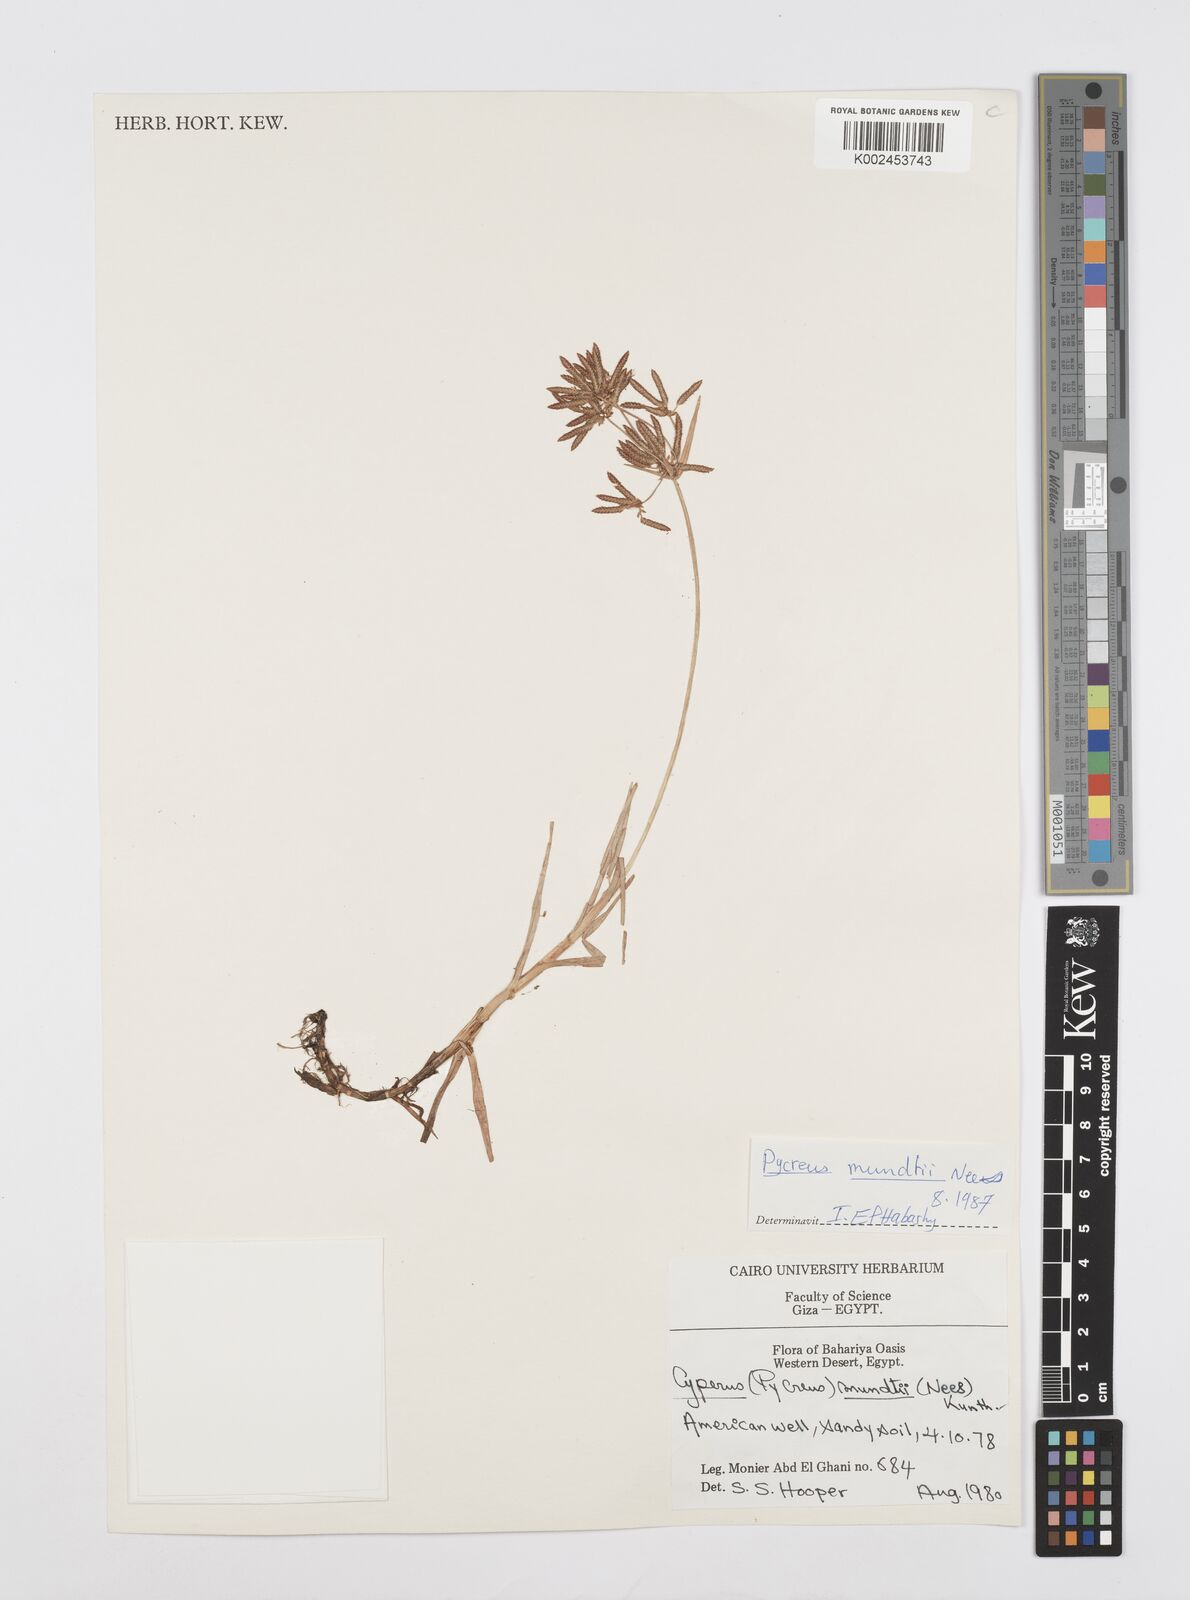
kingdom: Plantae
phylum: Tracheophyta
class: Liliopsida
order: Poales
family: Cyperaceae
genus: Cyperus
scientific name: Cyperus mundii
